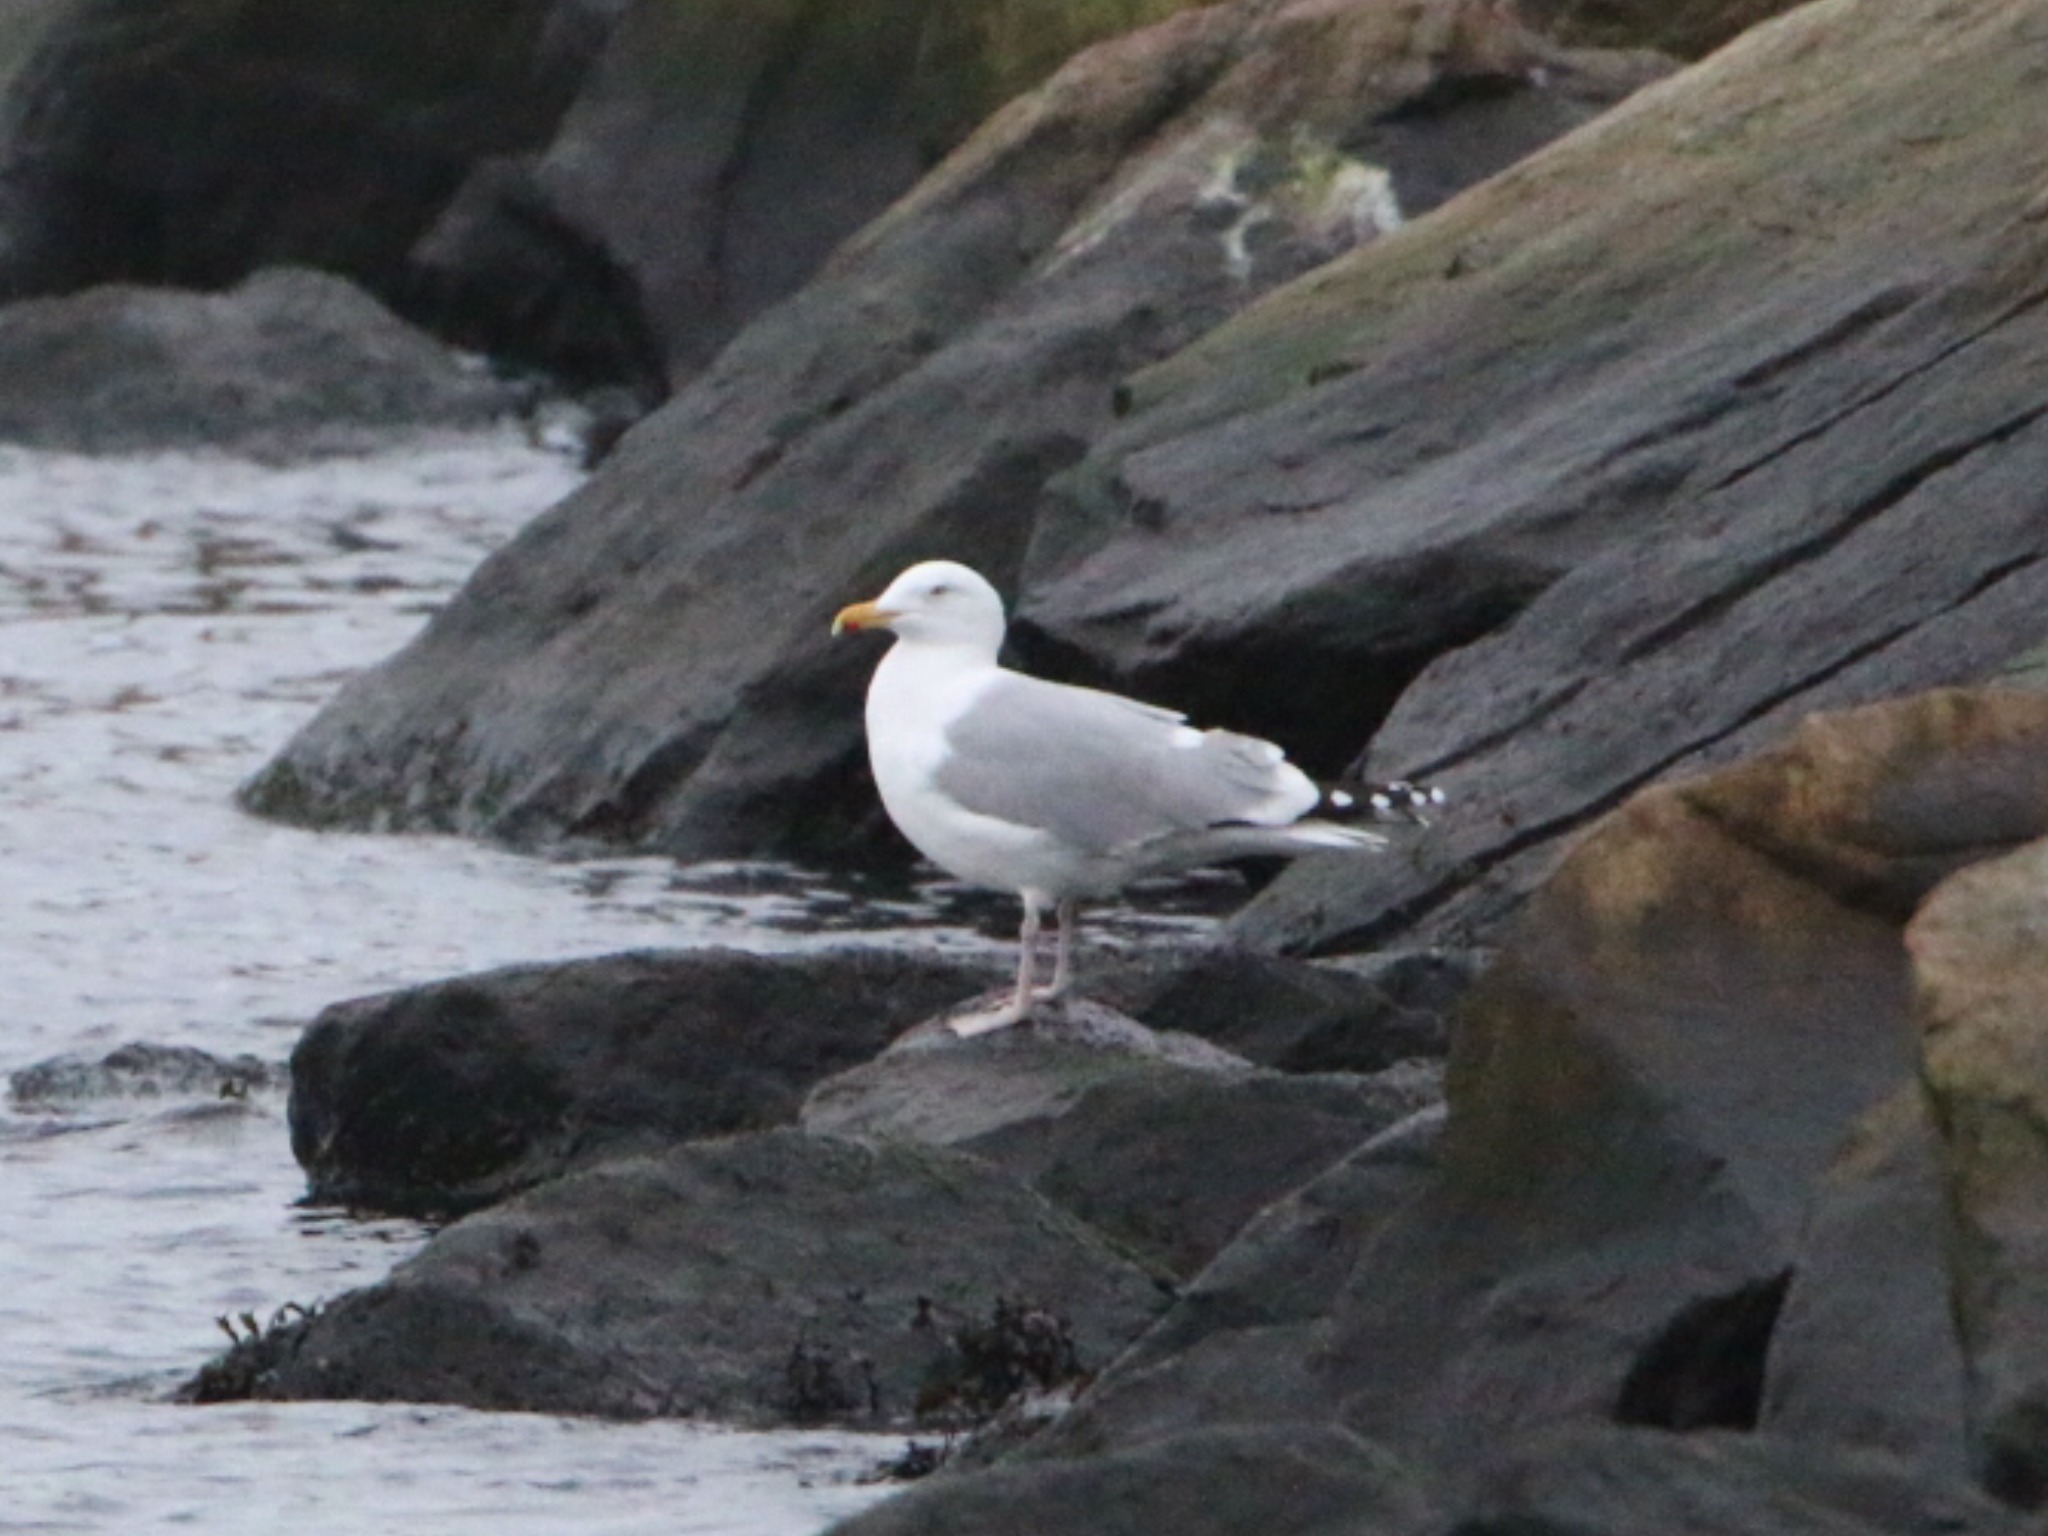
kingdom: Animalia
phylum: Chordata
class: Aves
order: Charadriiformes
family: Laridae
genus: Larus
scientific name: Larus argentatus
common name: Sølvmåge
